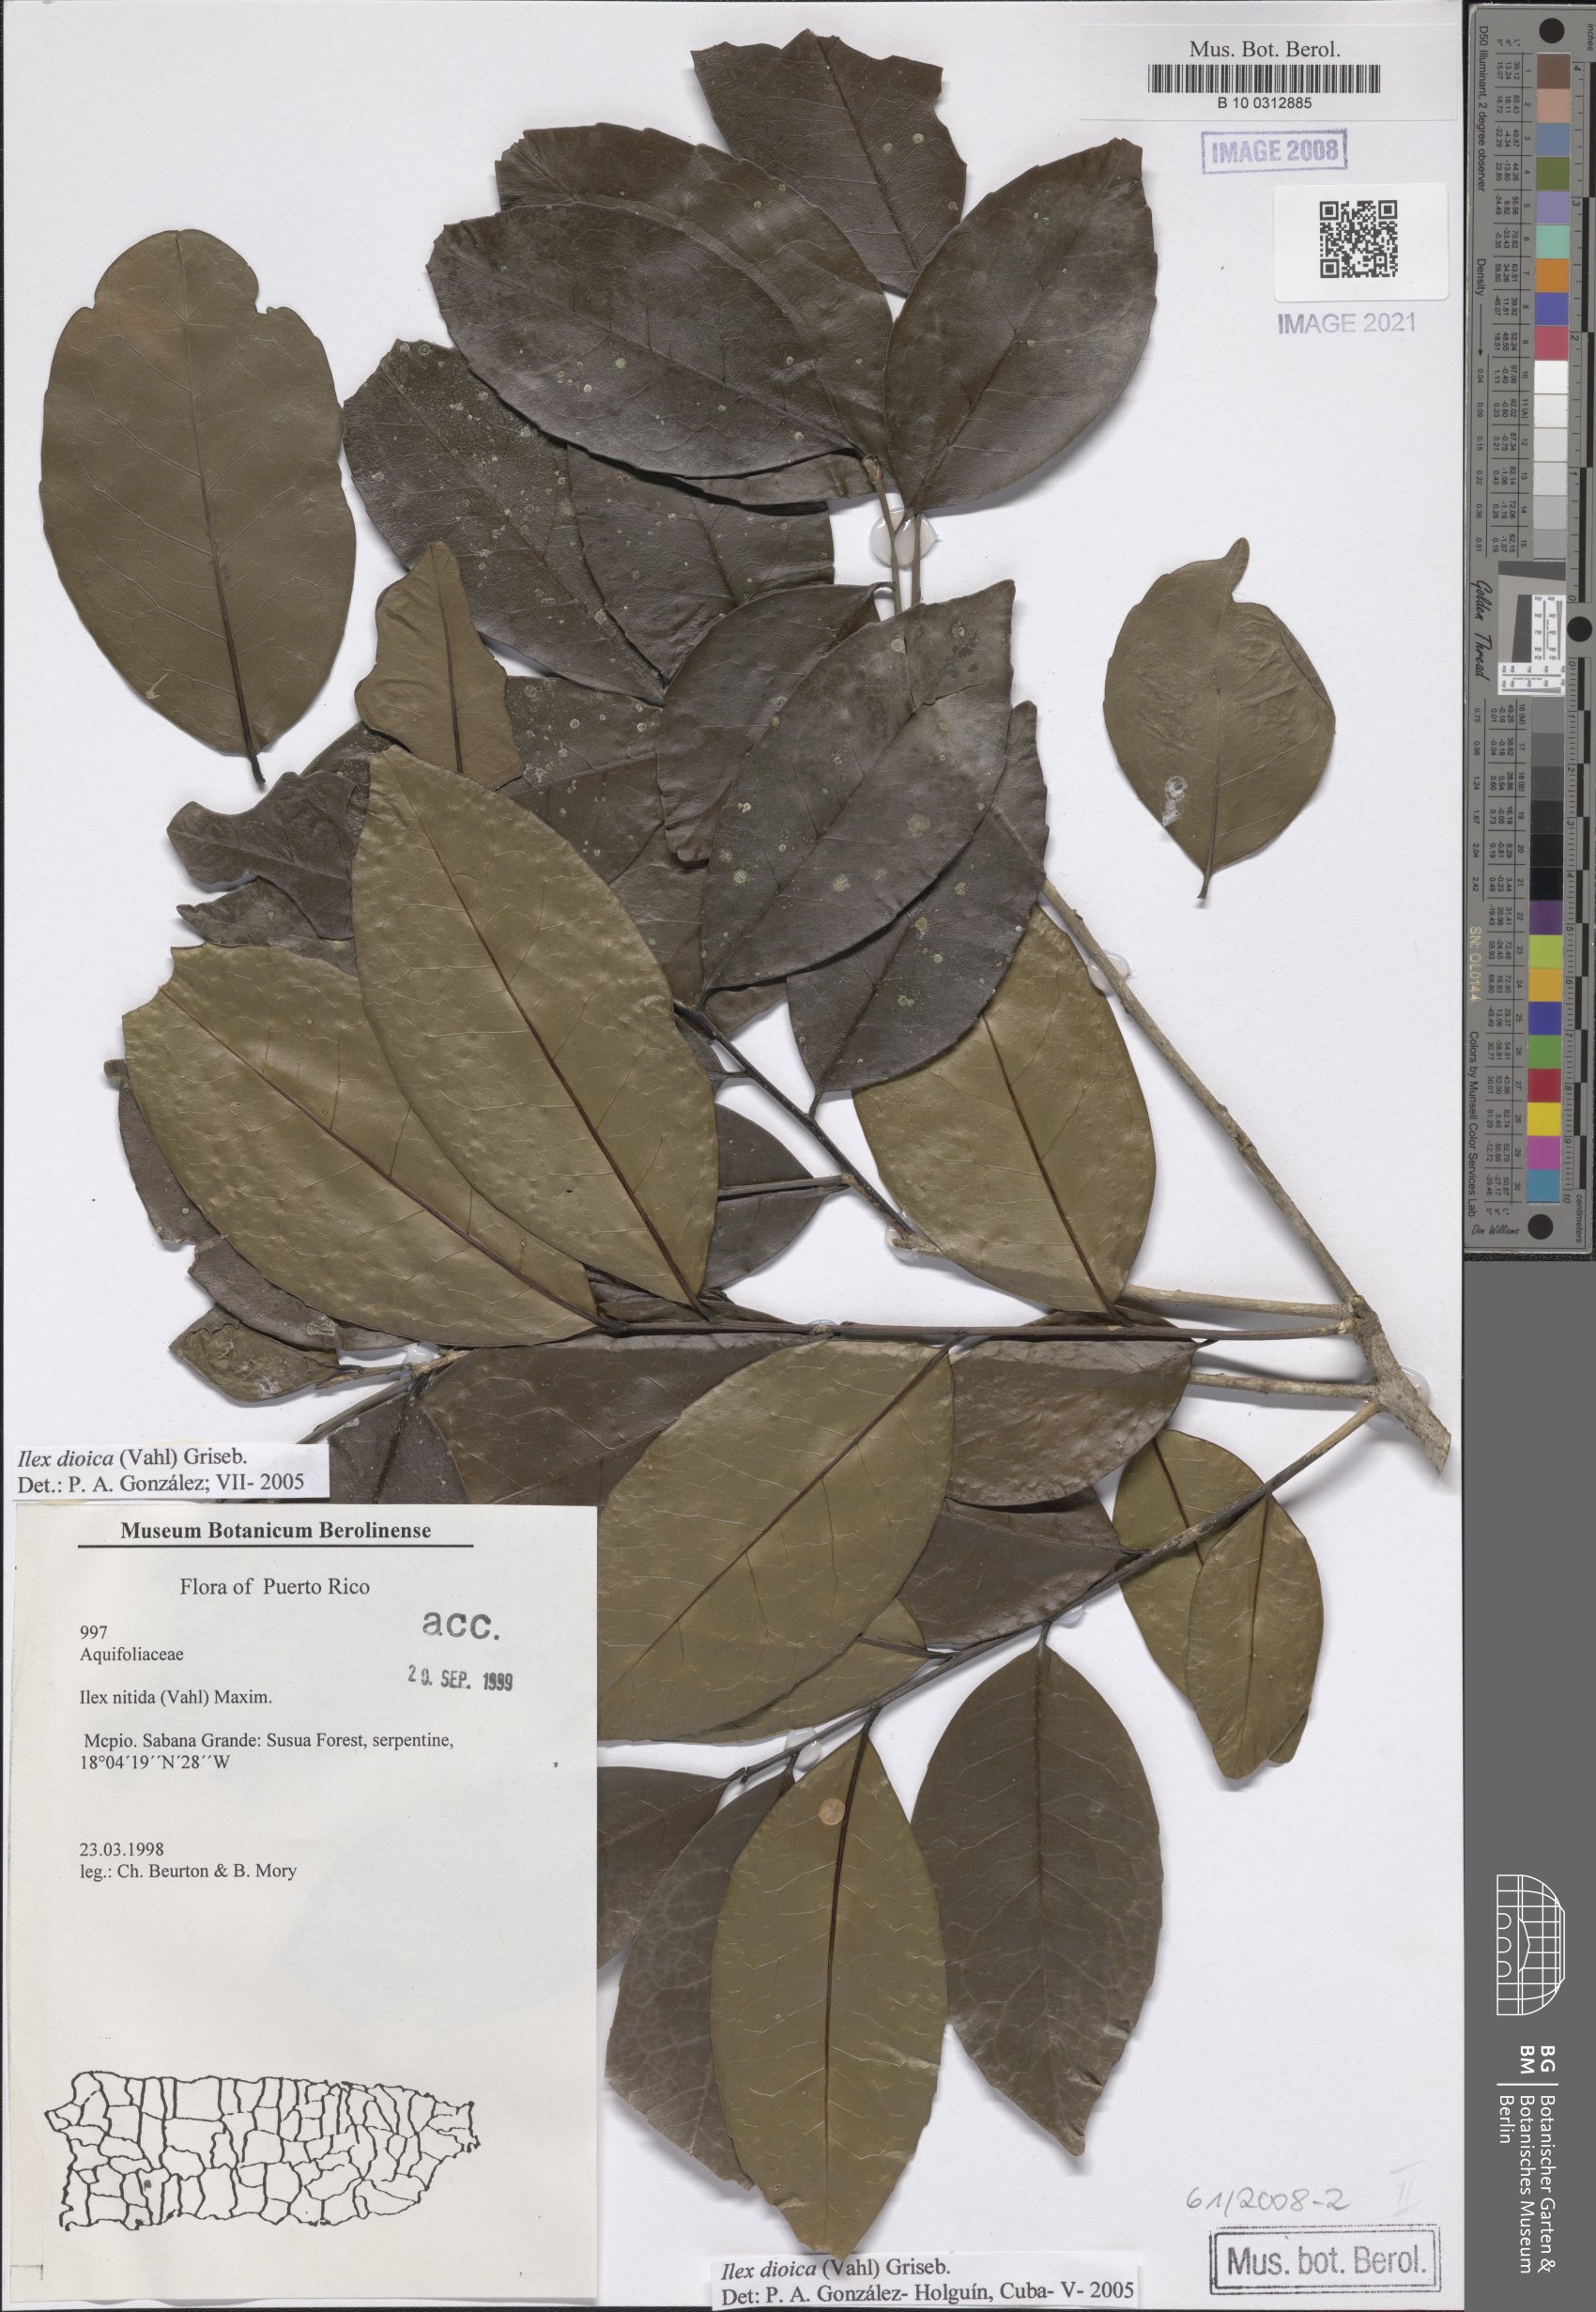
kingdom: Plantae
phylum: Tracheophyta
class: Magnoliopsida
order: Aquifoliales
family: Aquifoliaceae
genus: Ilex
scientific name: Ilex dioica
